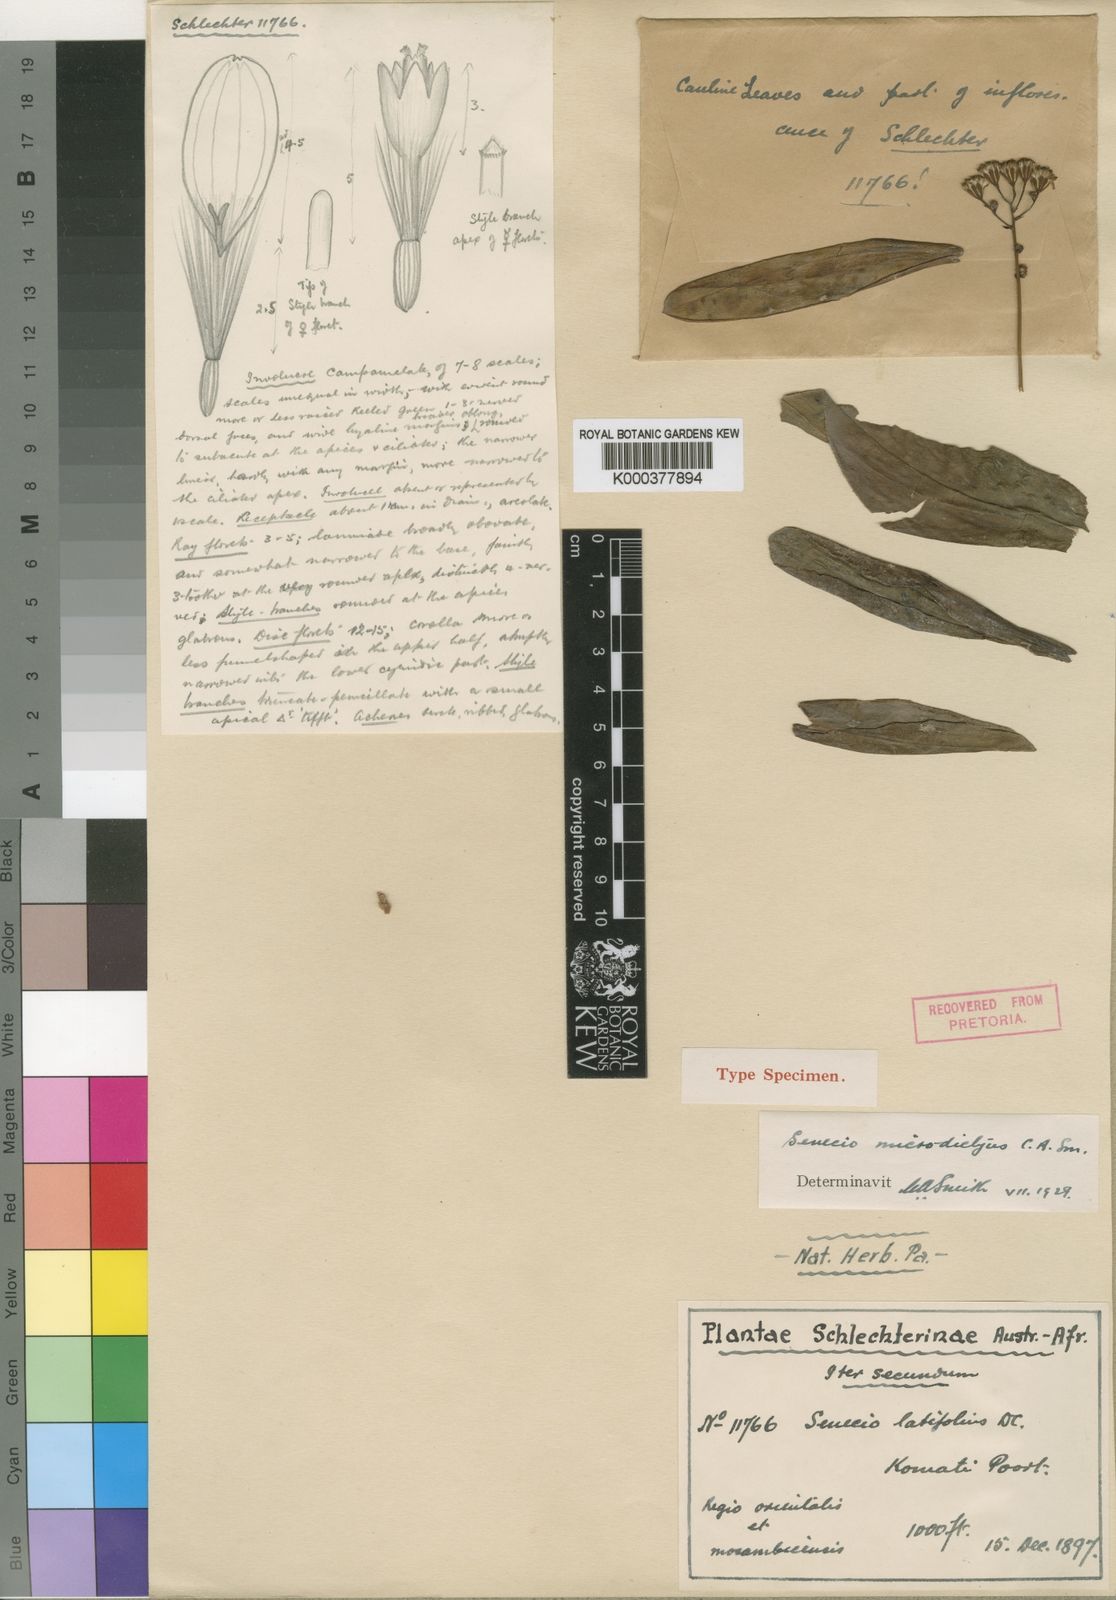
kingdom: Plantae
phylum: Tracheophyta
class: Magnoliopsida
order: Asterales
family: Asteraceae
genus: Senecio
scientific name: Senecio
